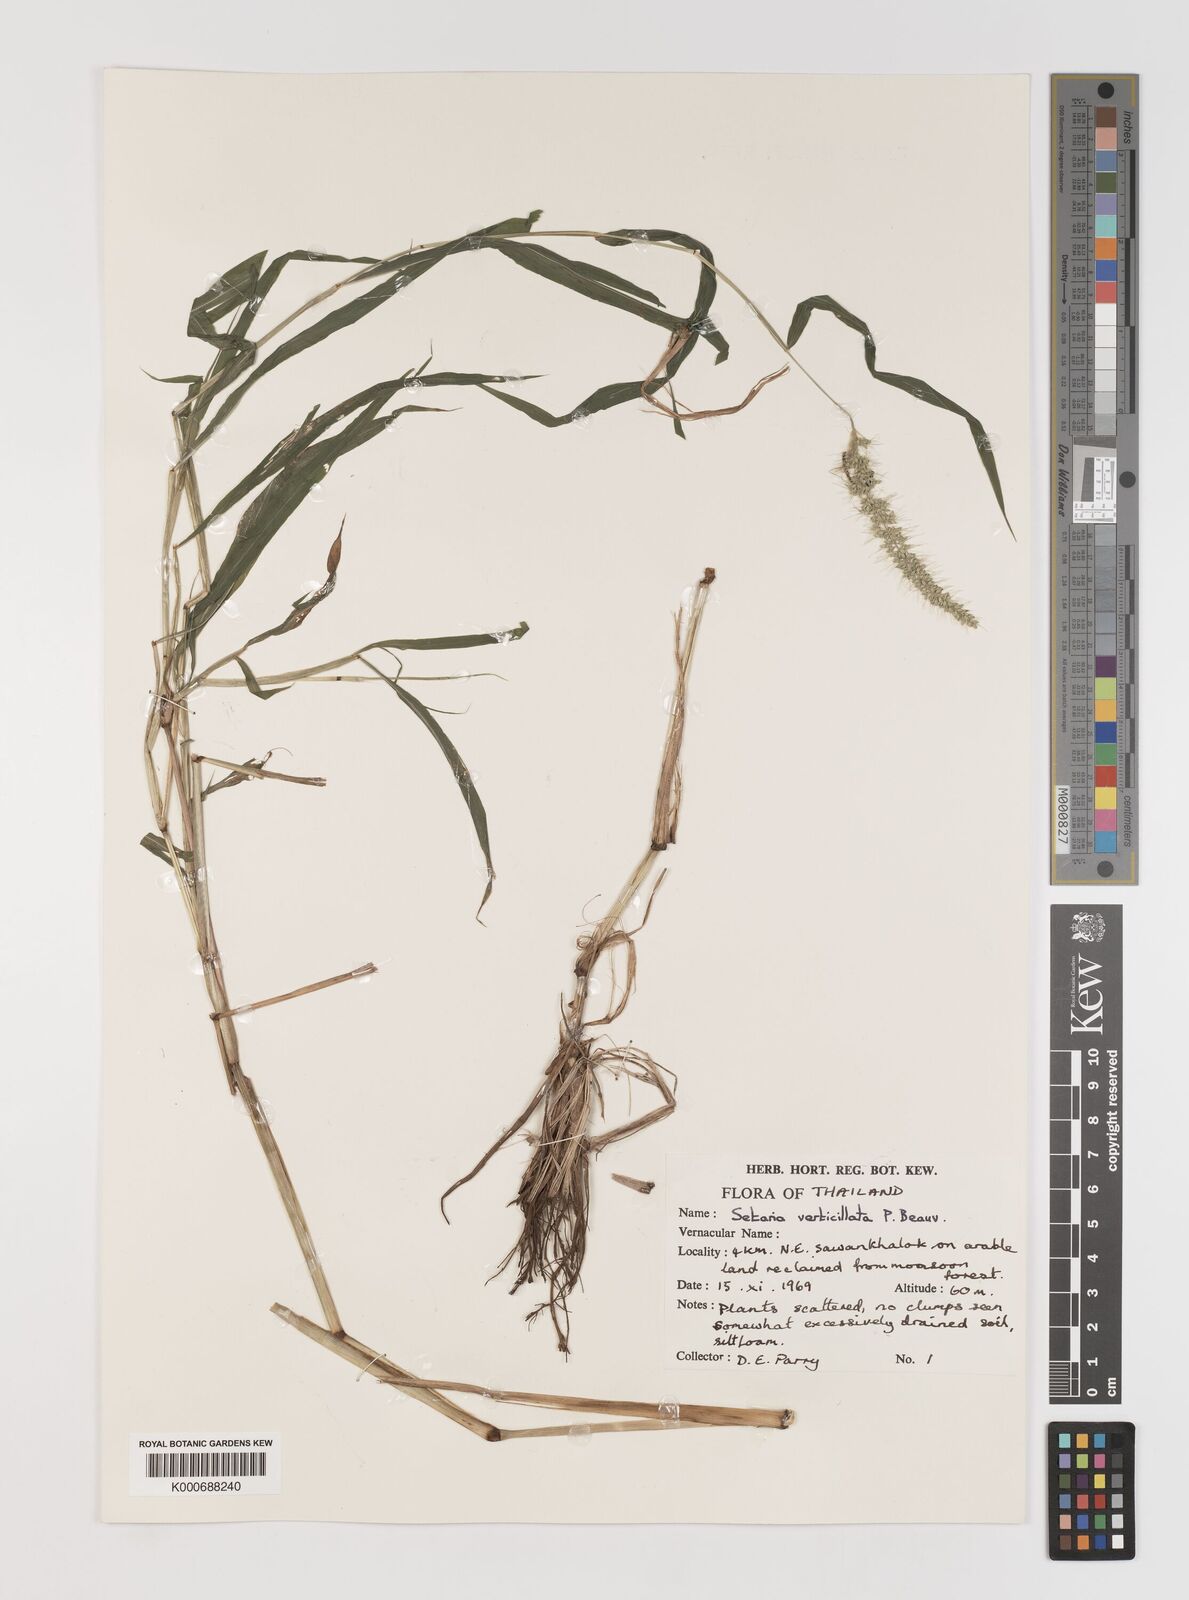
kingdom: Plantae
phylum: Tracheophyta
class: Liliopsida
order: Poales
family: Poaceae
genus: Setaria
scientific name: Setaria verticillata
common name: Hooked bristlegrass
